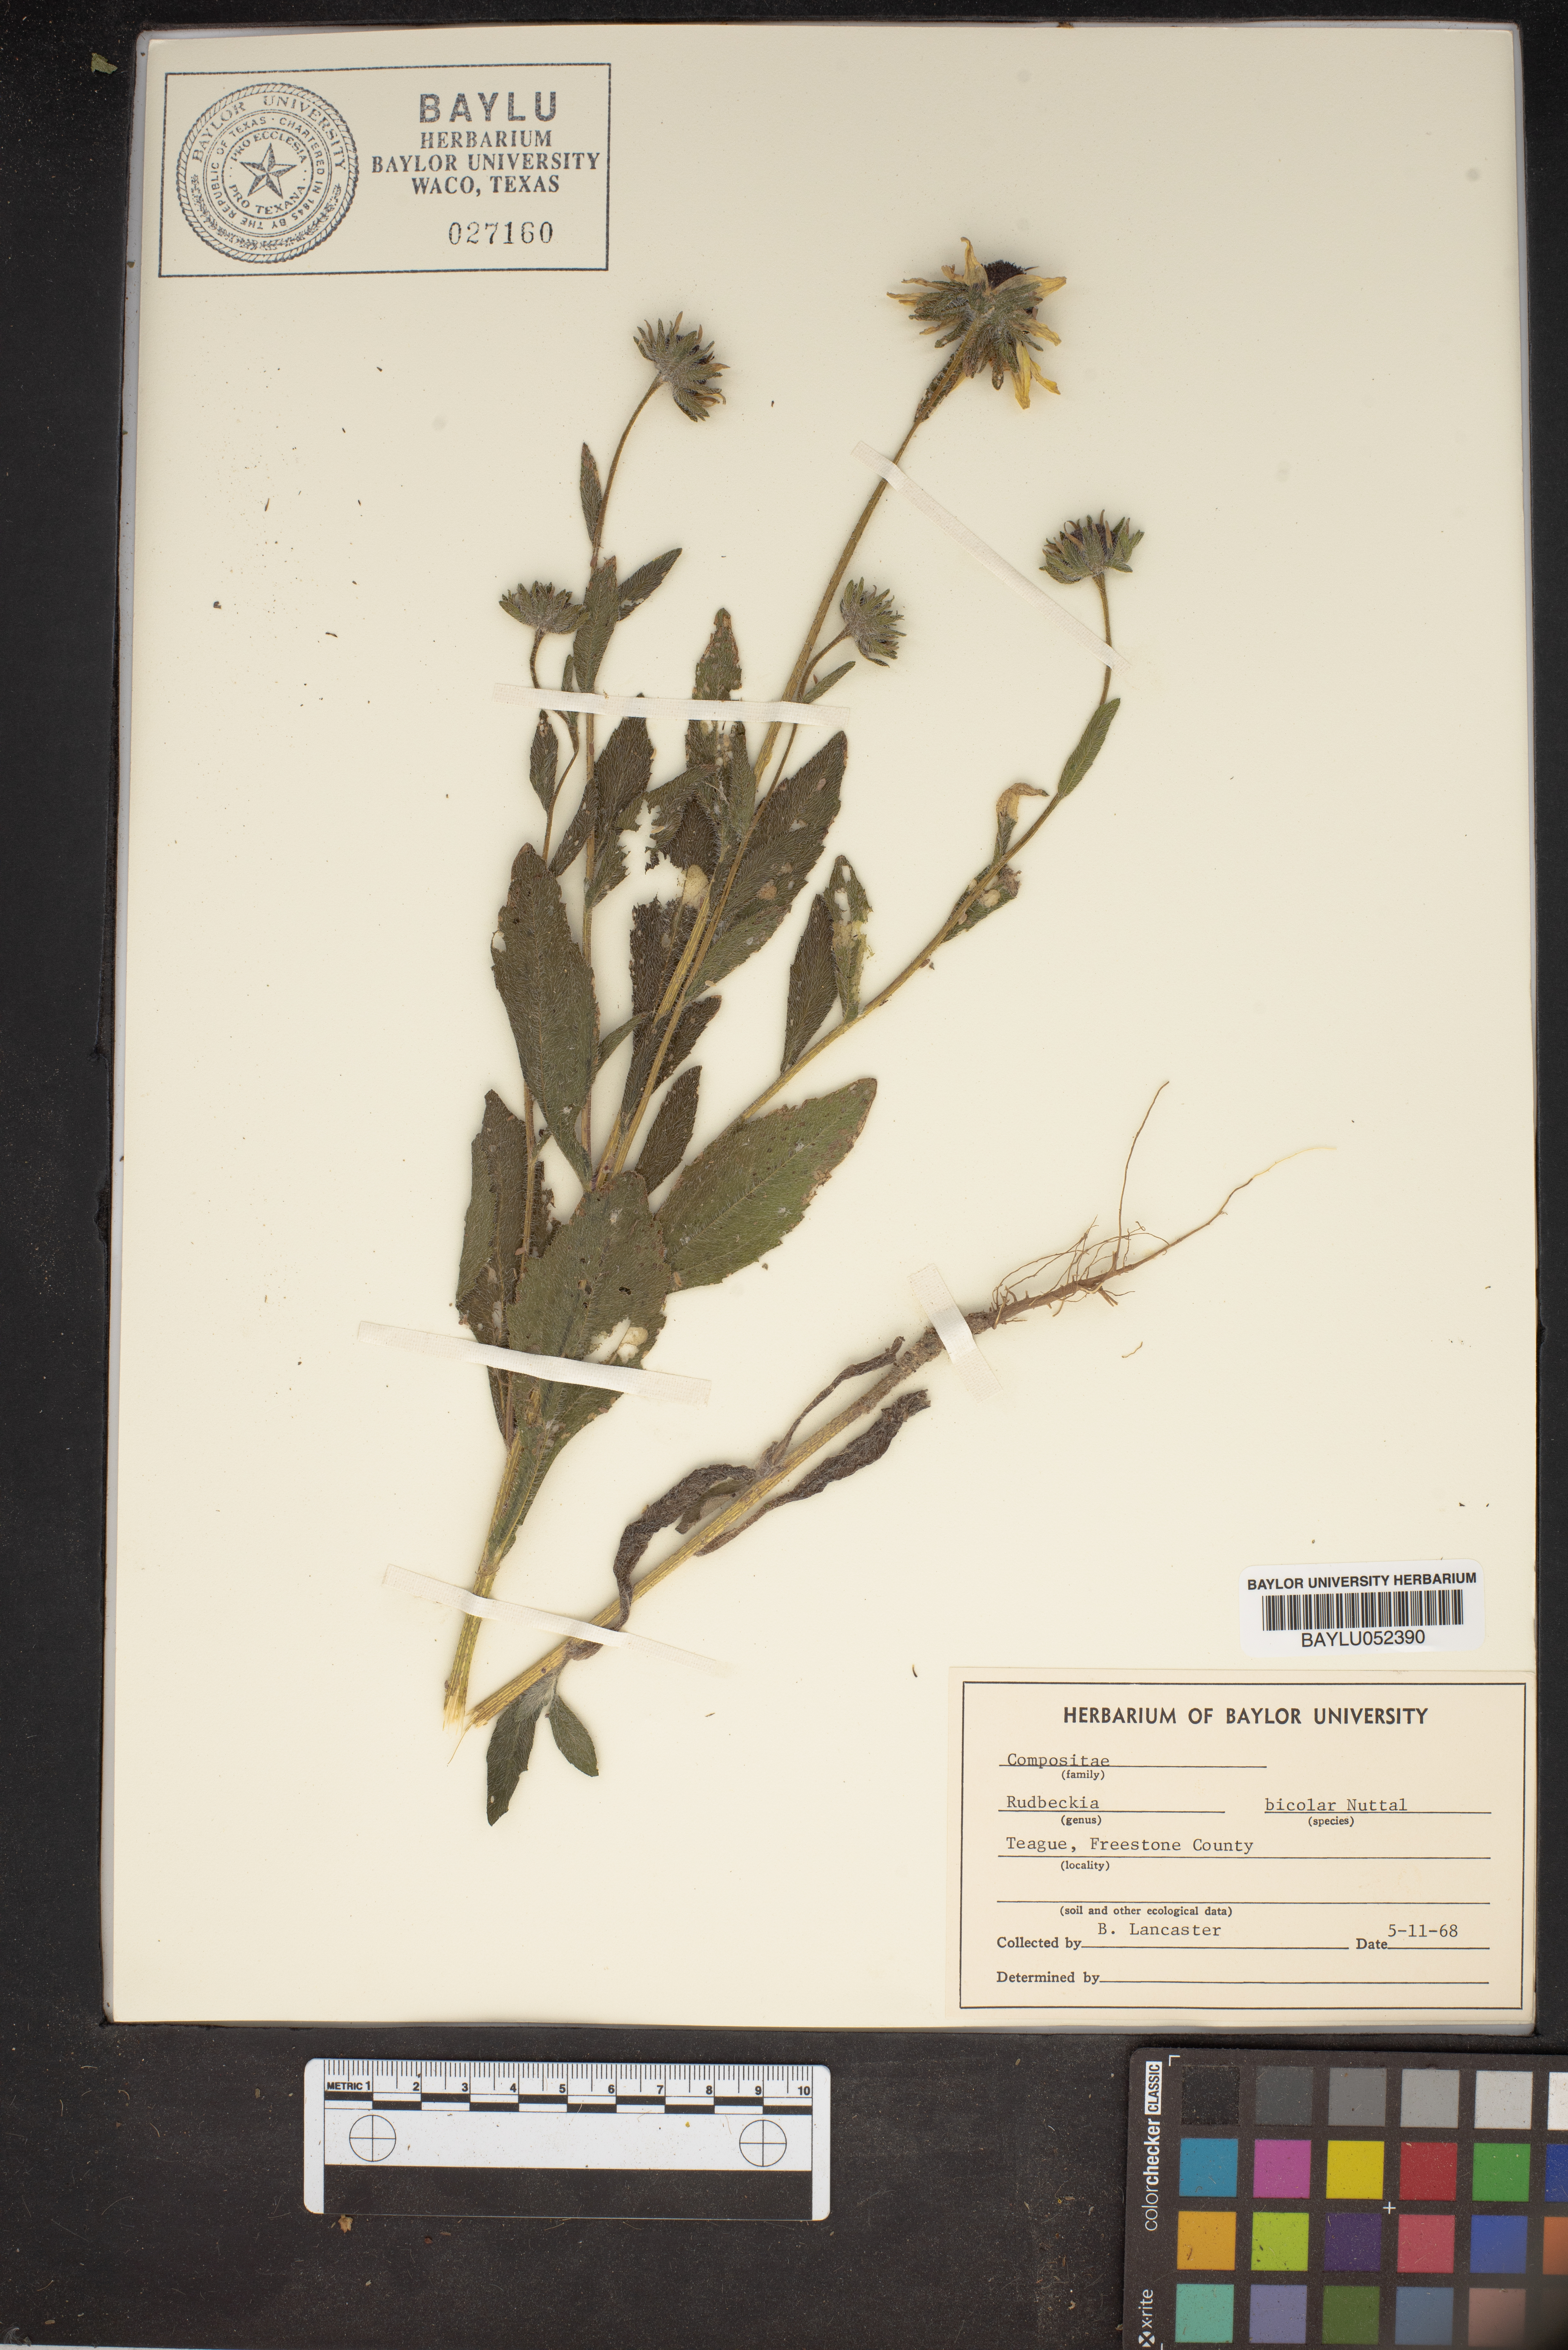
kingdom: Plantae
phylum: Tracheophyta
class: Magnoliopsida
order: Asterales
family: Asteraceae
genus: Rudbeckia
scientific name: Rudbeckia hirta
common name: Black-eyed-susan
